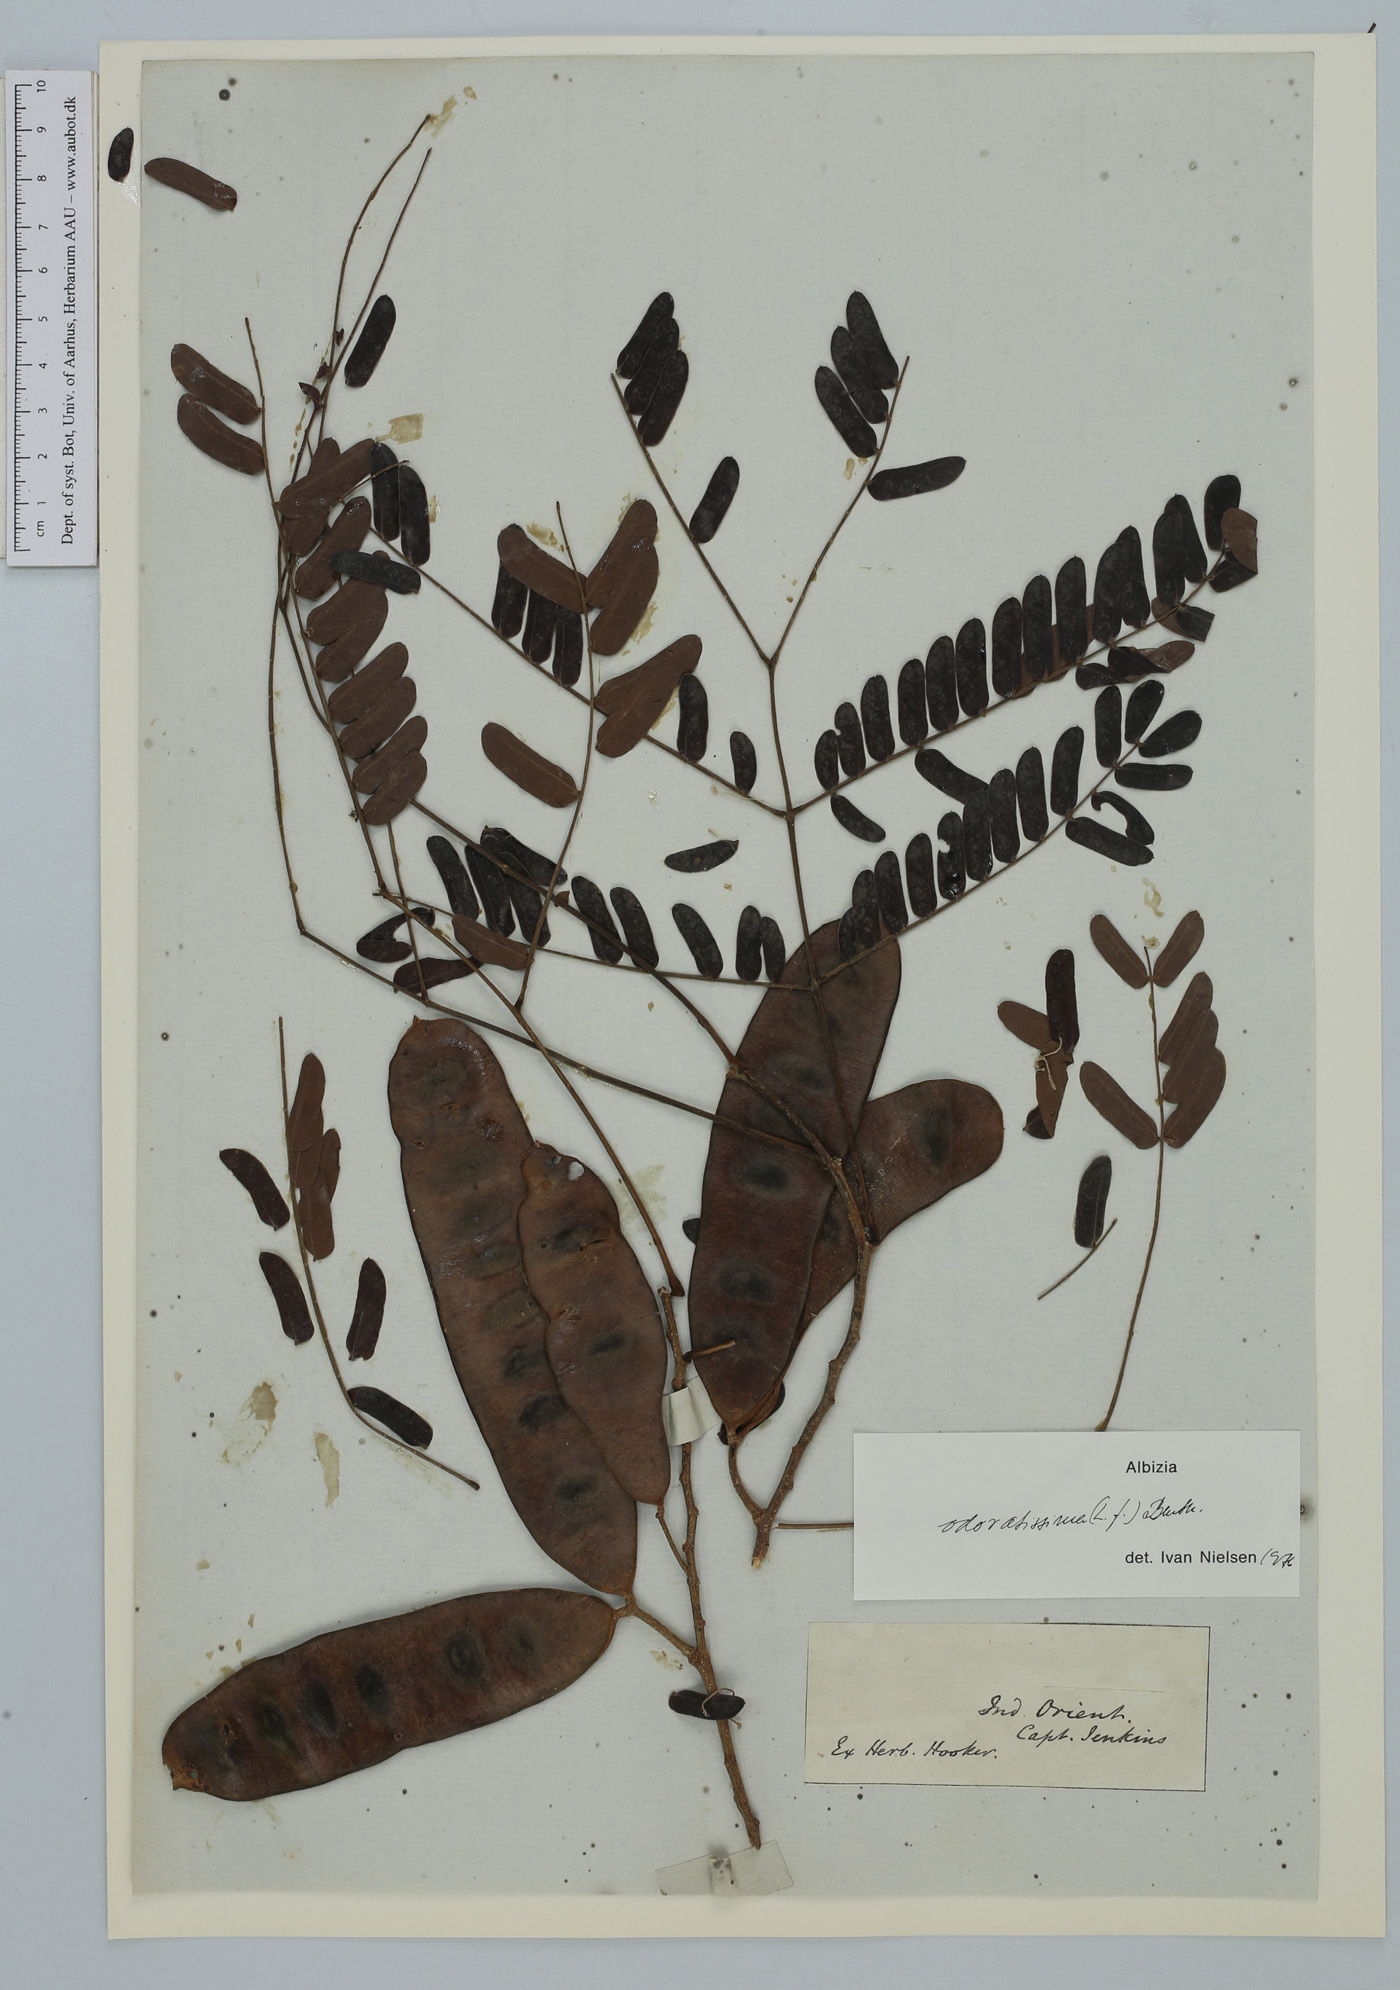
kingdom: Plantae
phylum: Tracheophyta
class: Magnoliopsida
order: Fabales
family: Fabaceae
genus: Albizia
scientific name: Albizia odoratissima
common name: Ceylon rosewood
